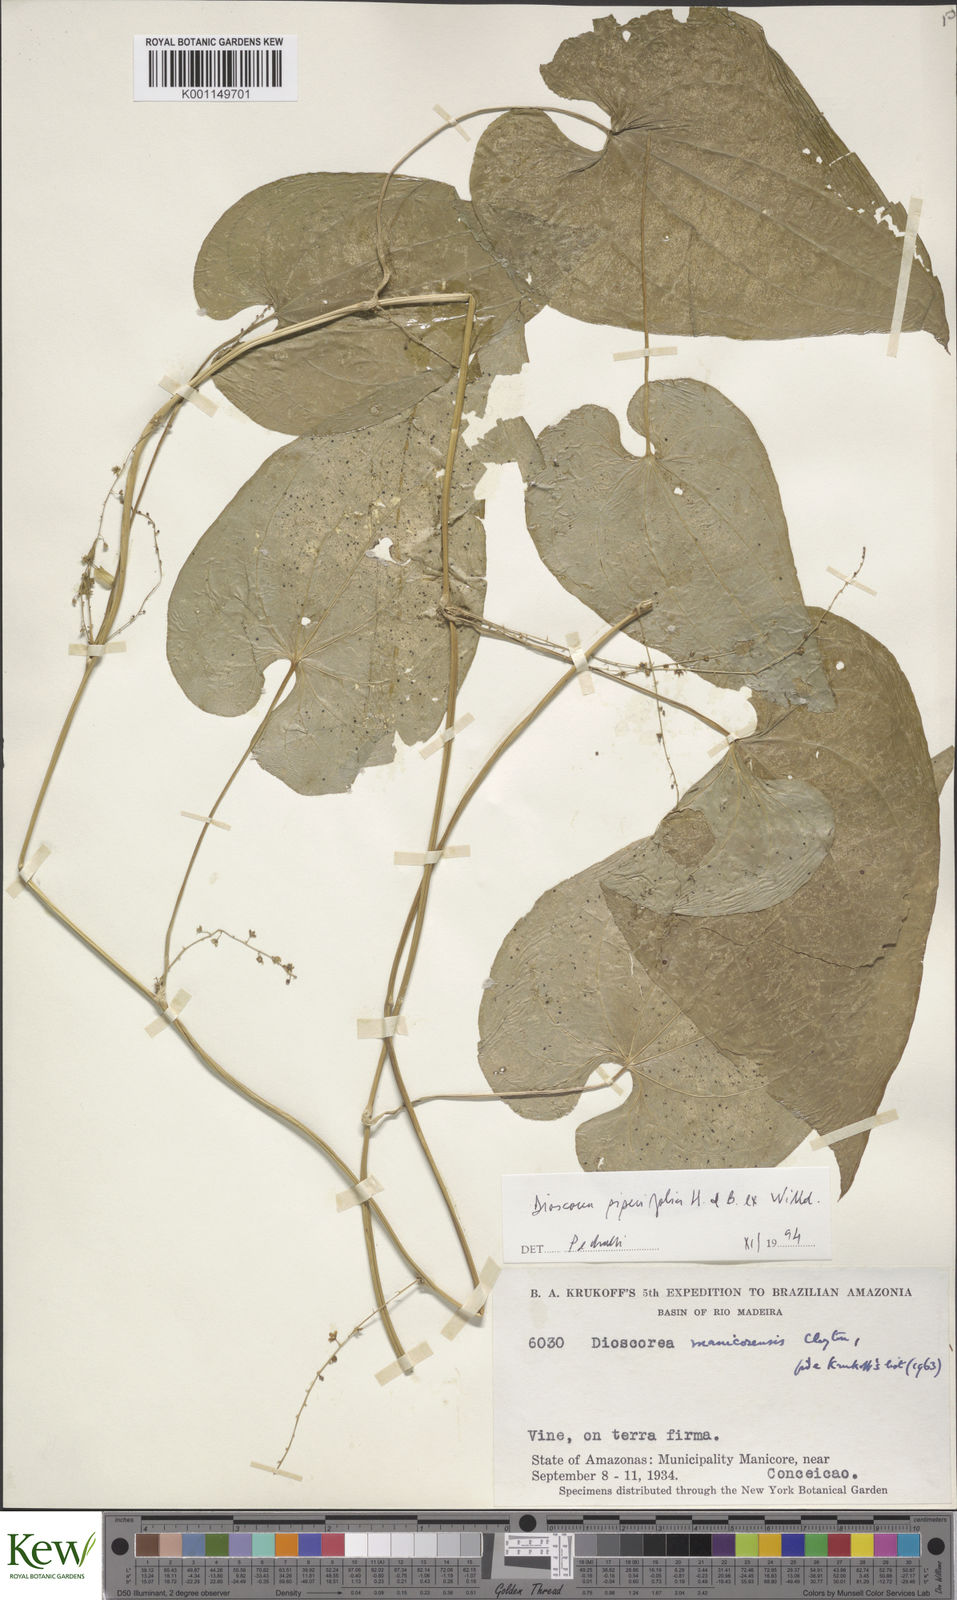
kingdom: Plantae
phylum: Tracheophyta
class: Liliopsida
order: Dioscoreales
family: Dioscoreaceae
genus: Dioscorea
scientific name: Dioscorea piperifolia
